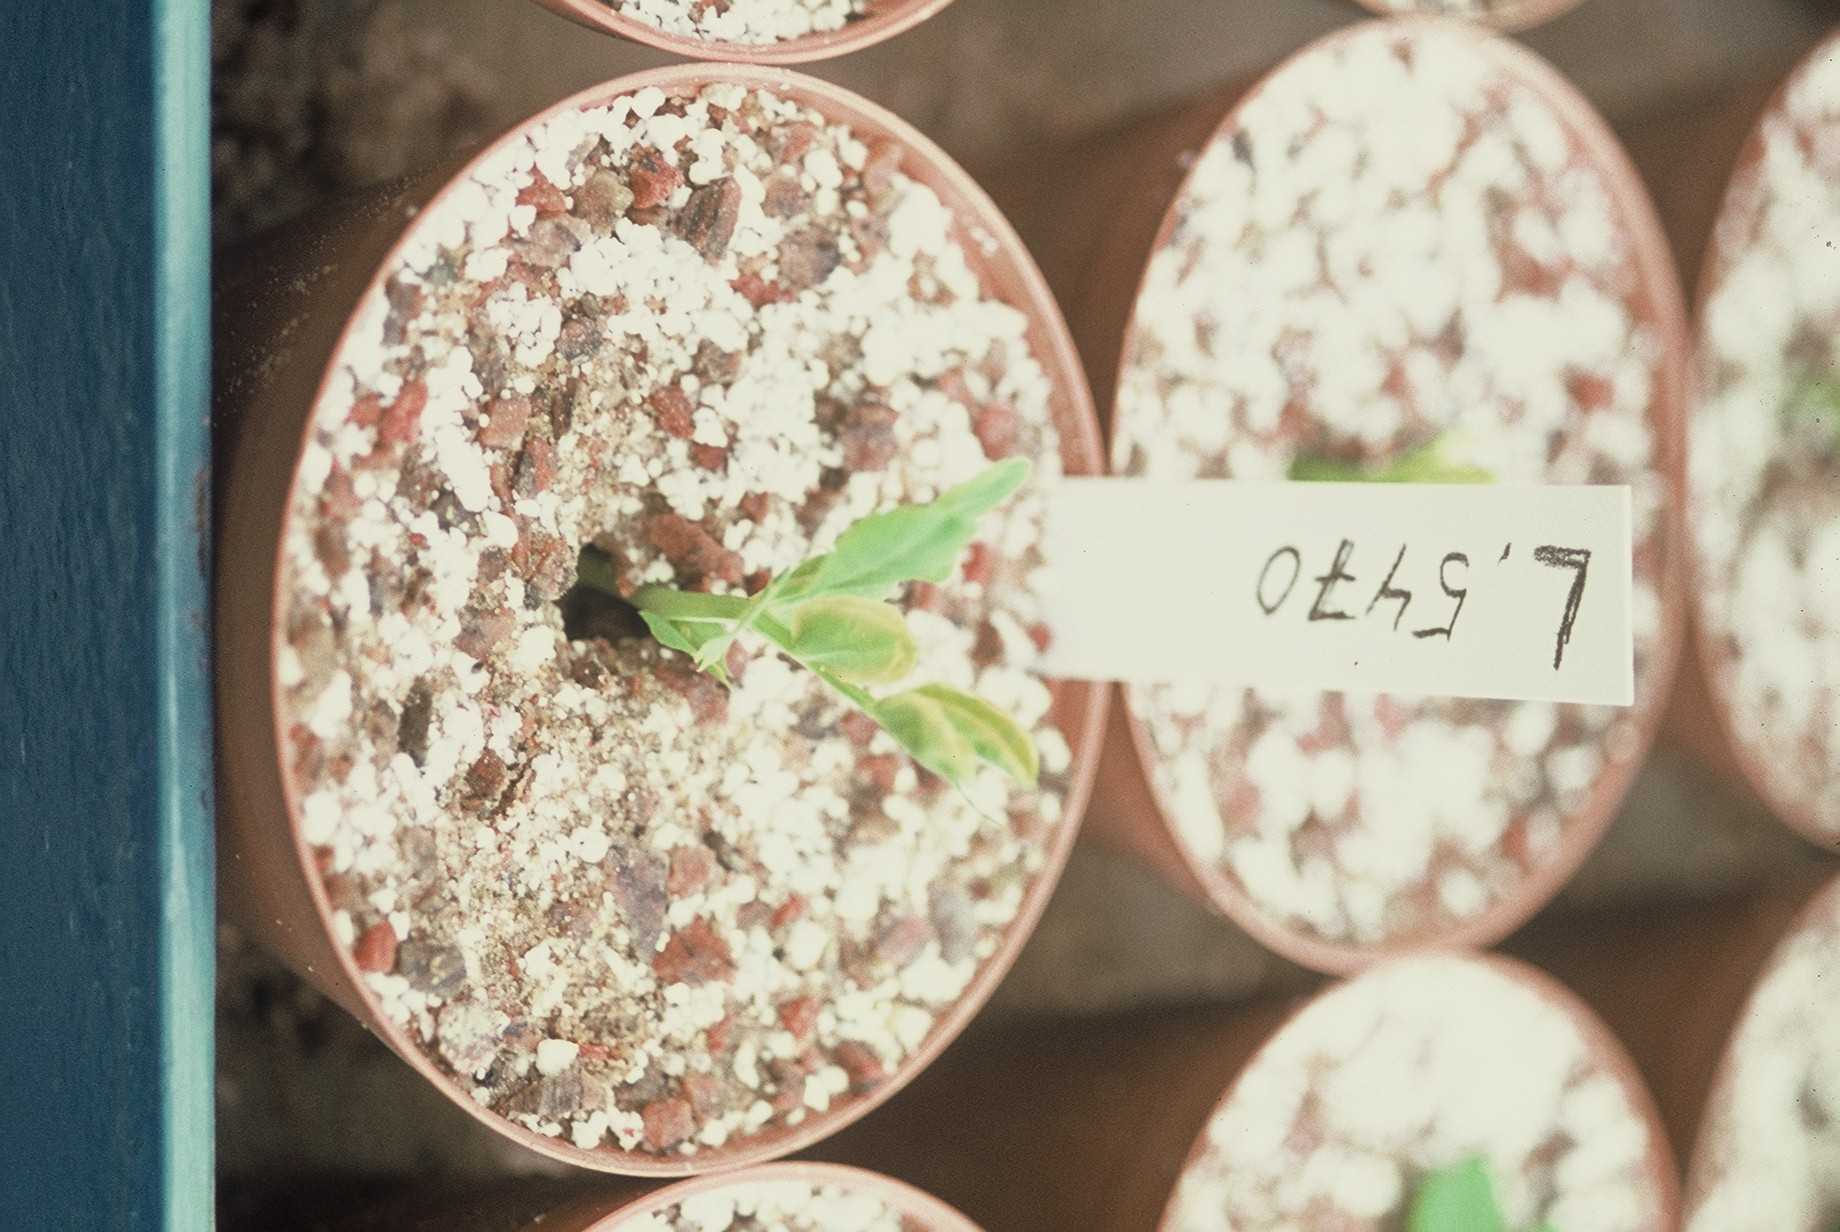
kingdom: Plantae
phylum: Tracheophyta
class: Magnoliopsida
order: Fabales
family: Fabaceae
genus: Lathyrus
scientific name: Lathyrus oleraceus
